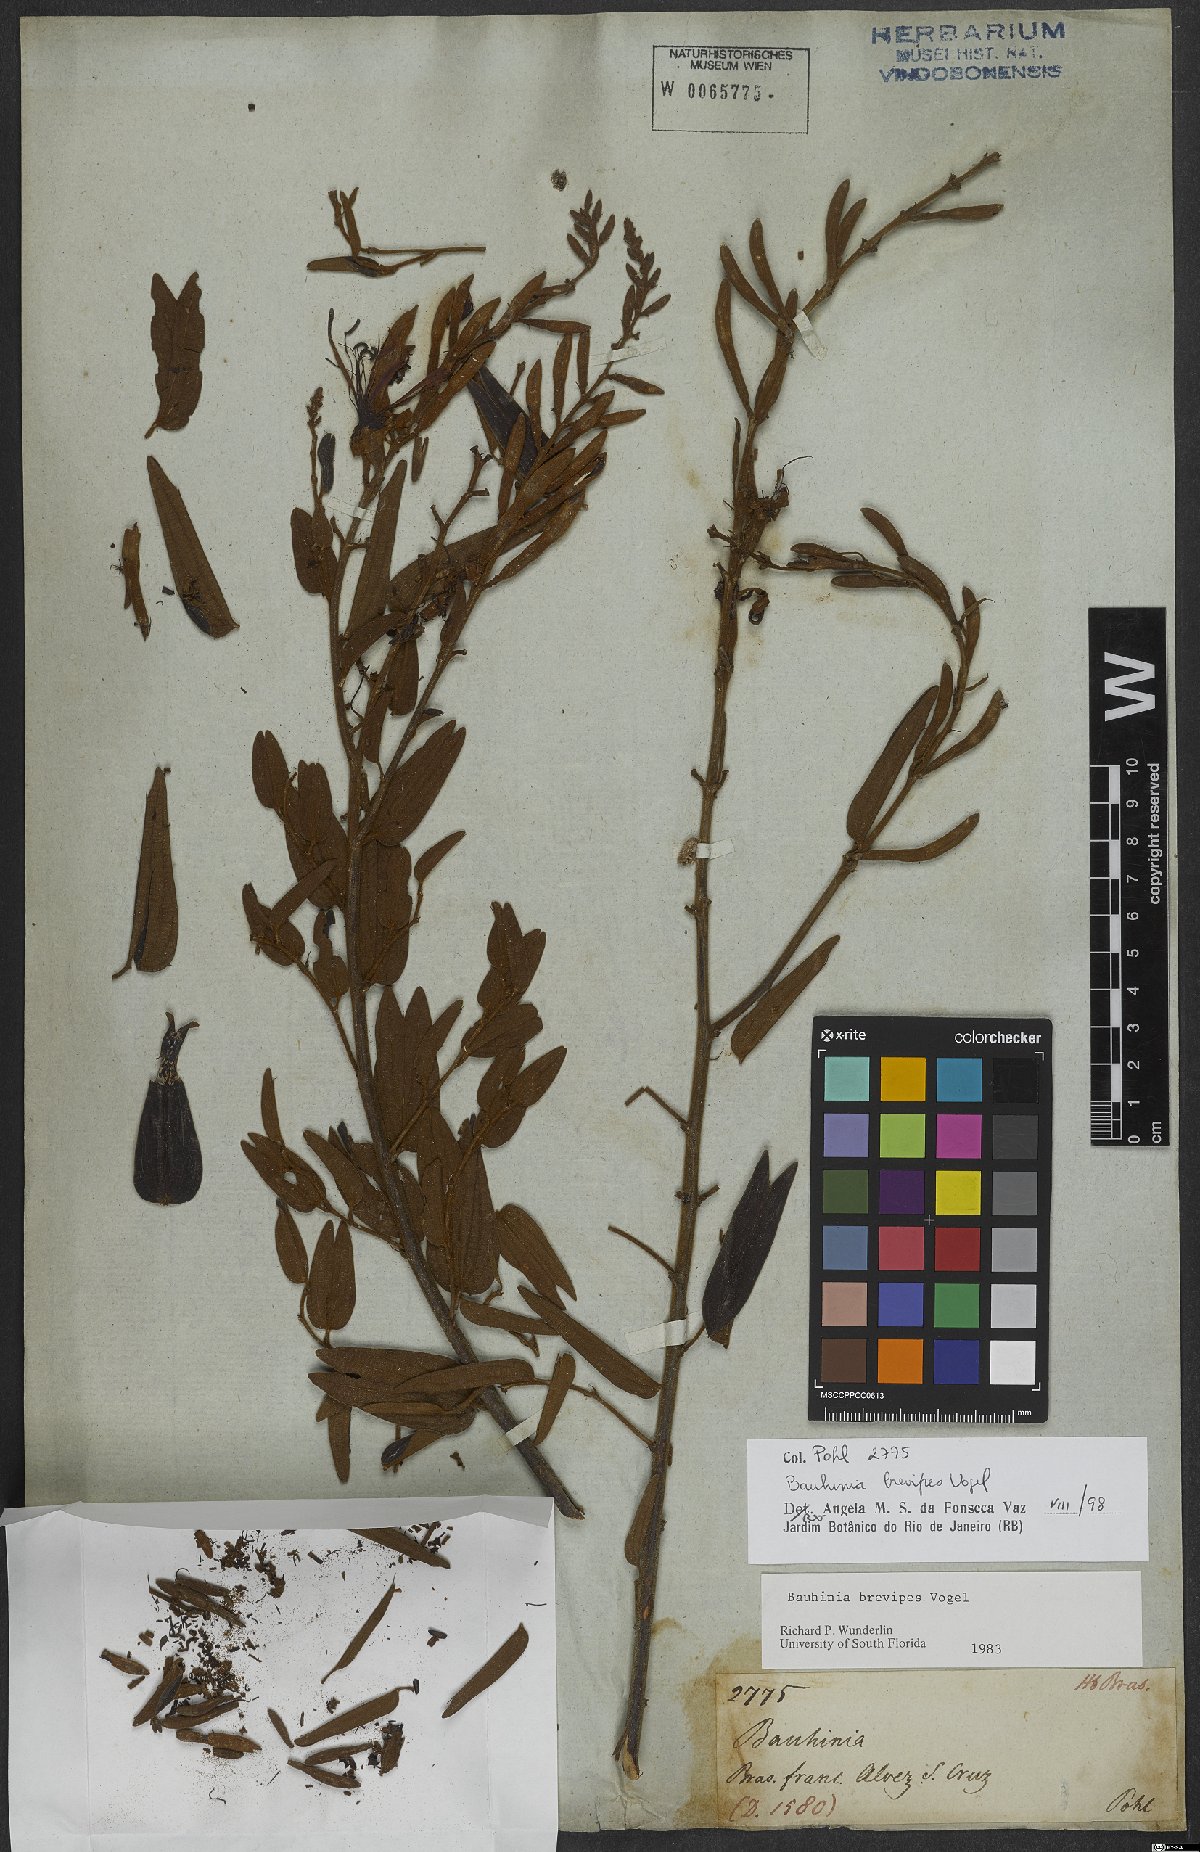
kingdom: Plantae
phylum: Tracheophyta
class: Magnoliopsida
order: Fabales
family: Fabaceae
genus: Bauhinia
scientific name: Bauhinia brevipes
